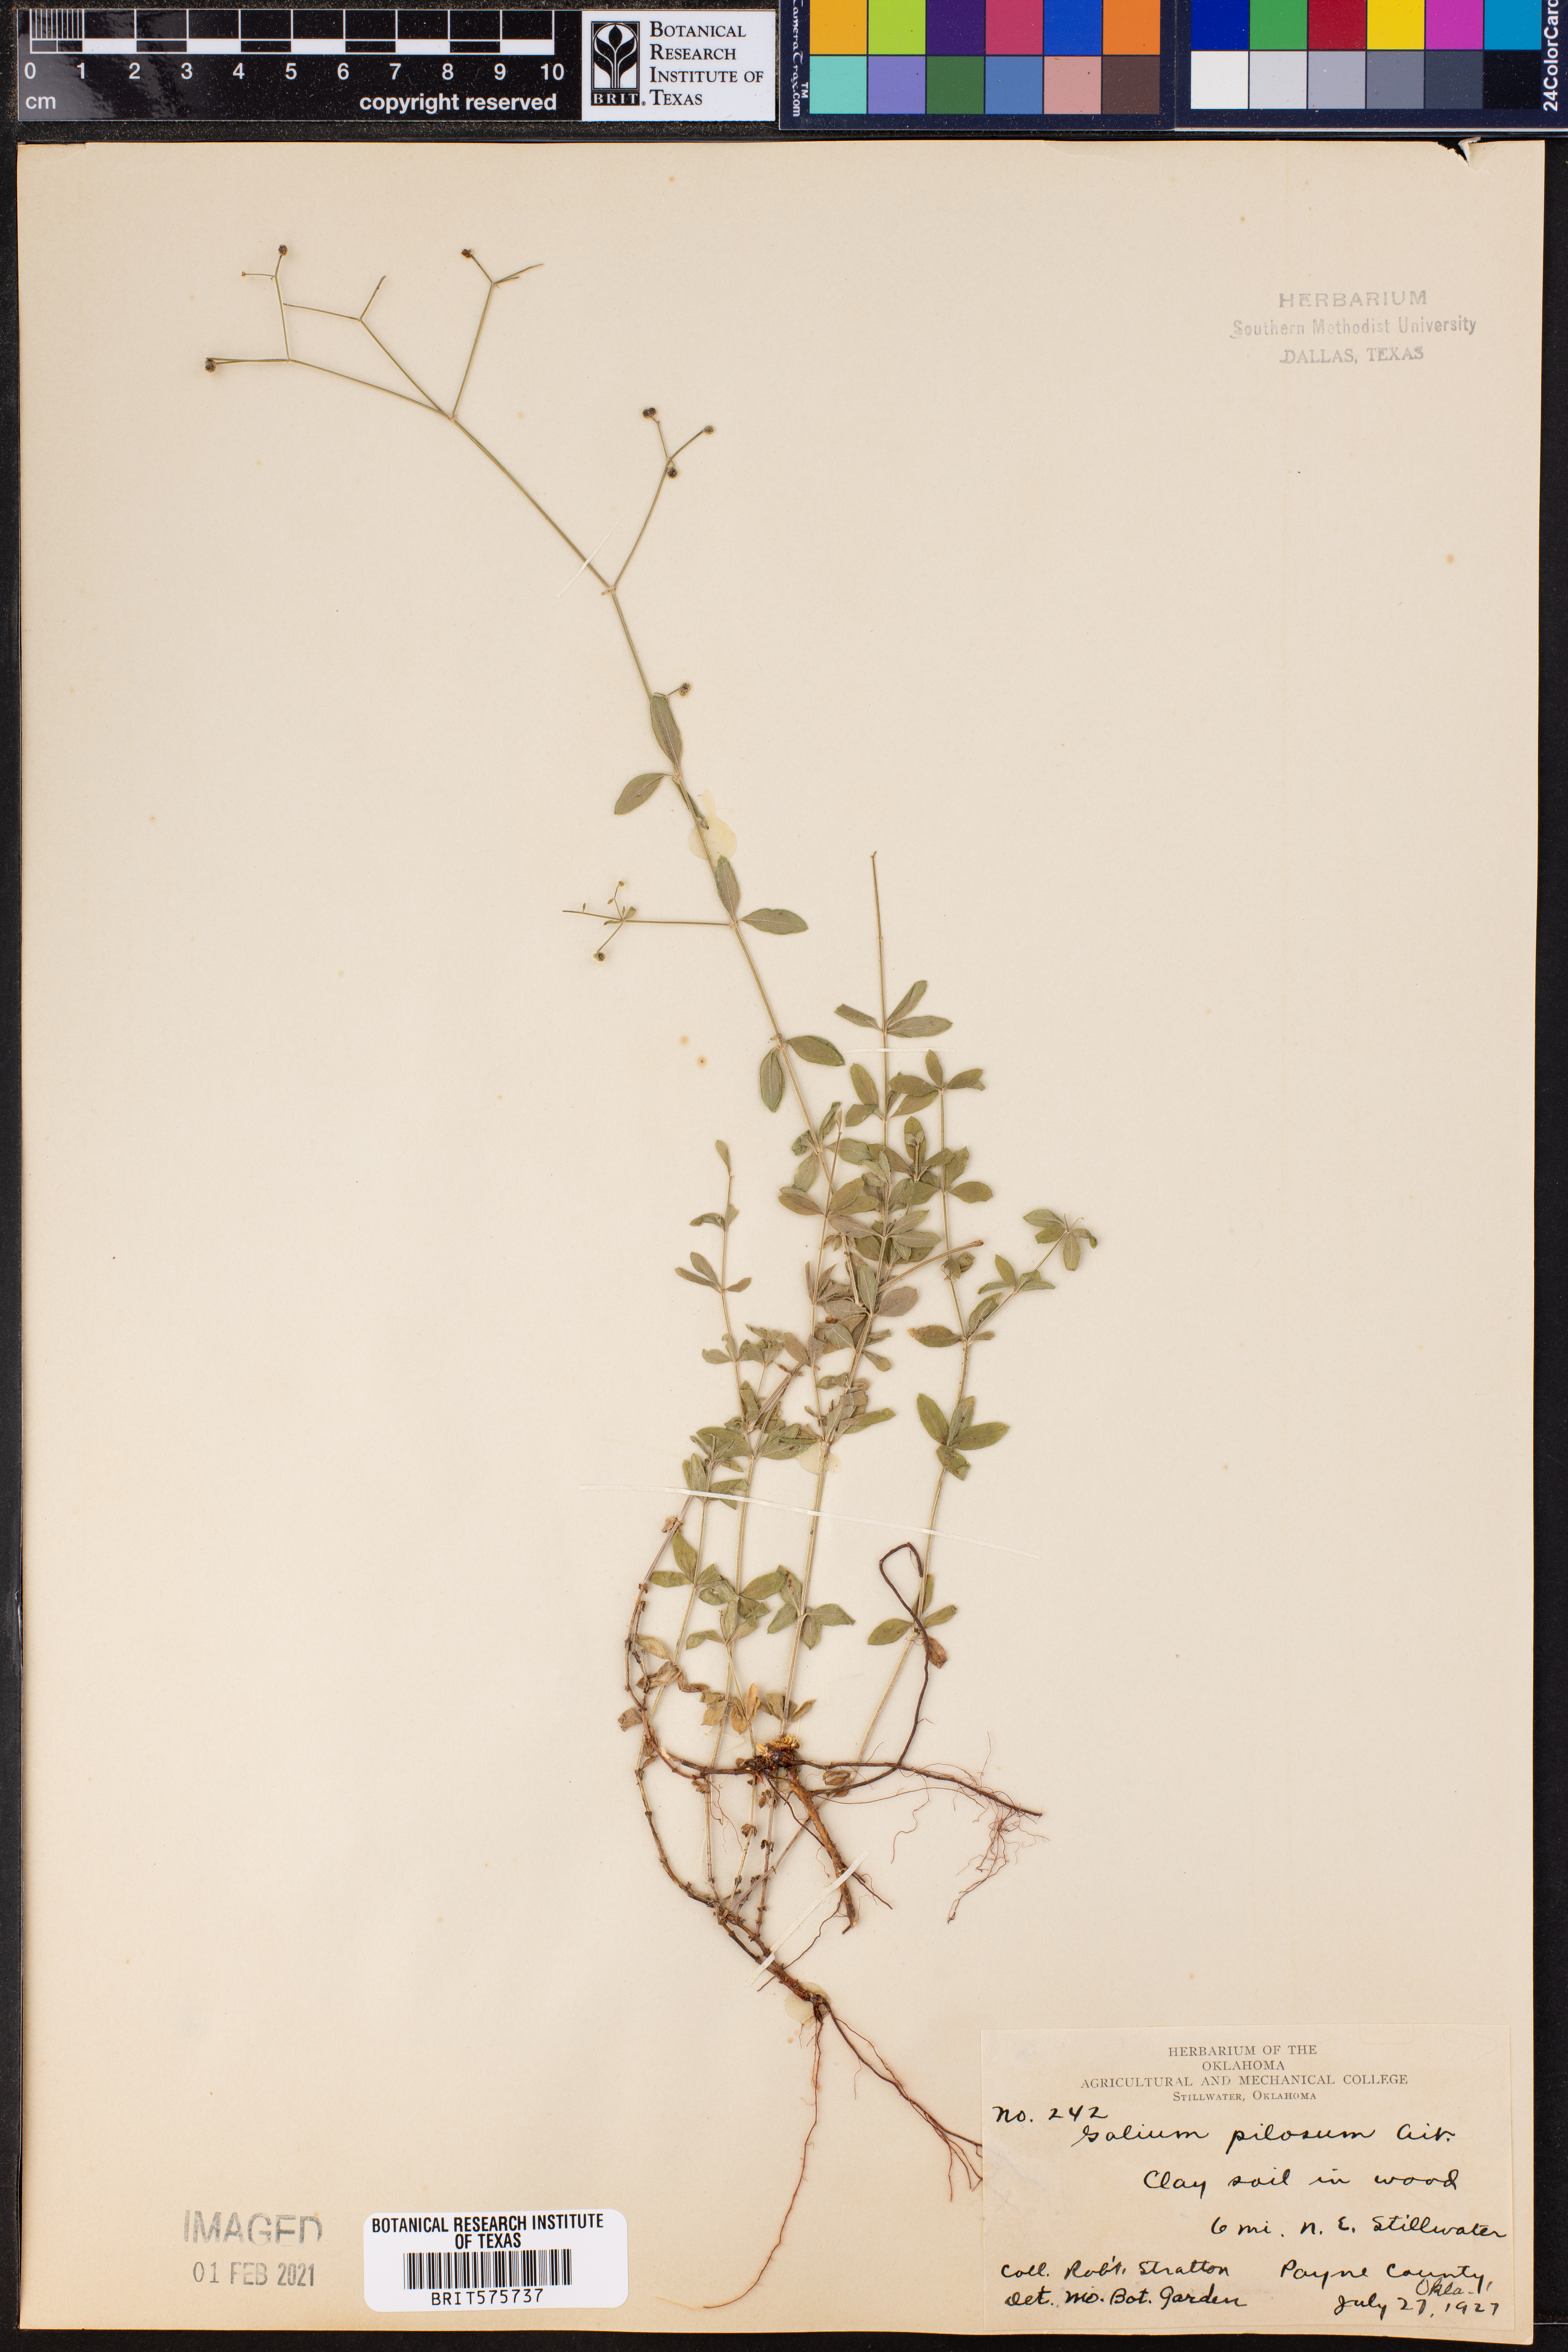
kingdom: Plantae
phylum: Tracheophyta
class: Magnoliopsida
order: Gentianales
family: Rubiaceae
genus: Galium
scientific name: Galium pilosum
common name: Hairy bedstraw
